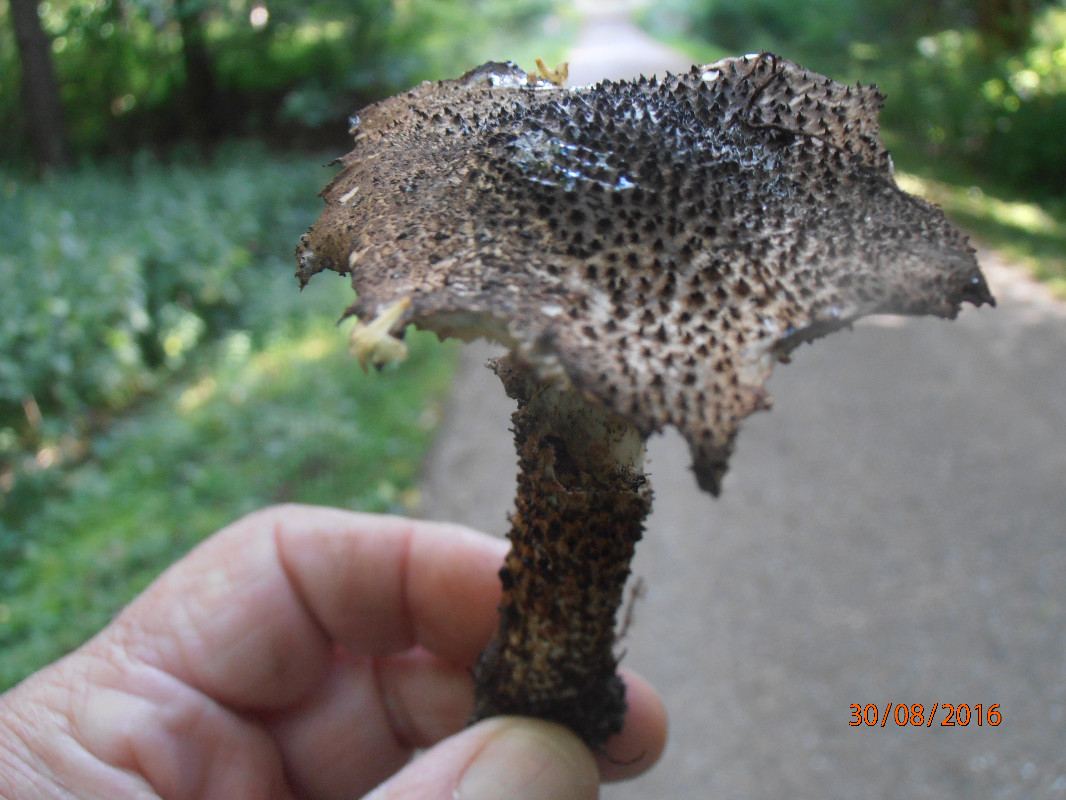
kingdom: Fungi
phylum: Basidiomycota
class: Agaricomycetes
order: Agaricales
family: Agaricaceae
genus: Echinoderma
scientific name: Echinoderma hystrix
